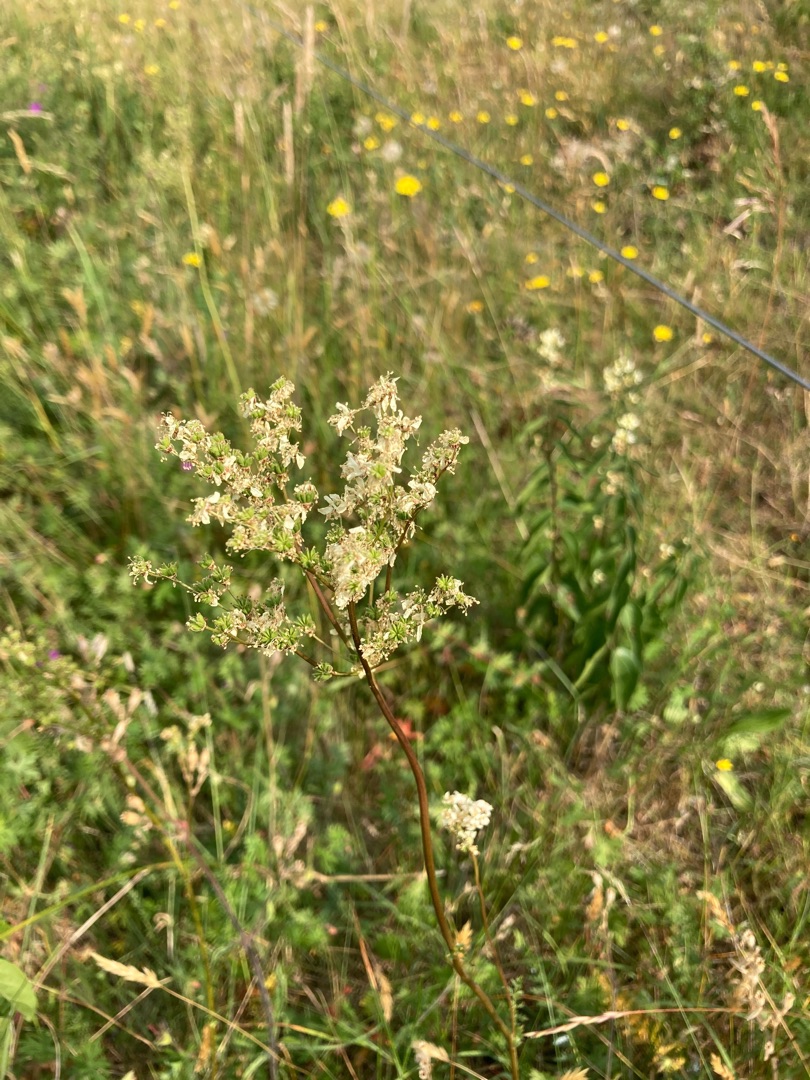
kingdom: Plantae
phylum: Tracheophyta
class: Magnoliopsida
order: Rosales
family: Rosaceae
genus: Filipendula
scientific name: Filipendula vulgaris
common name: Knoldet mjødurt
